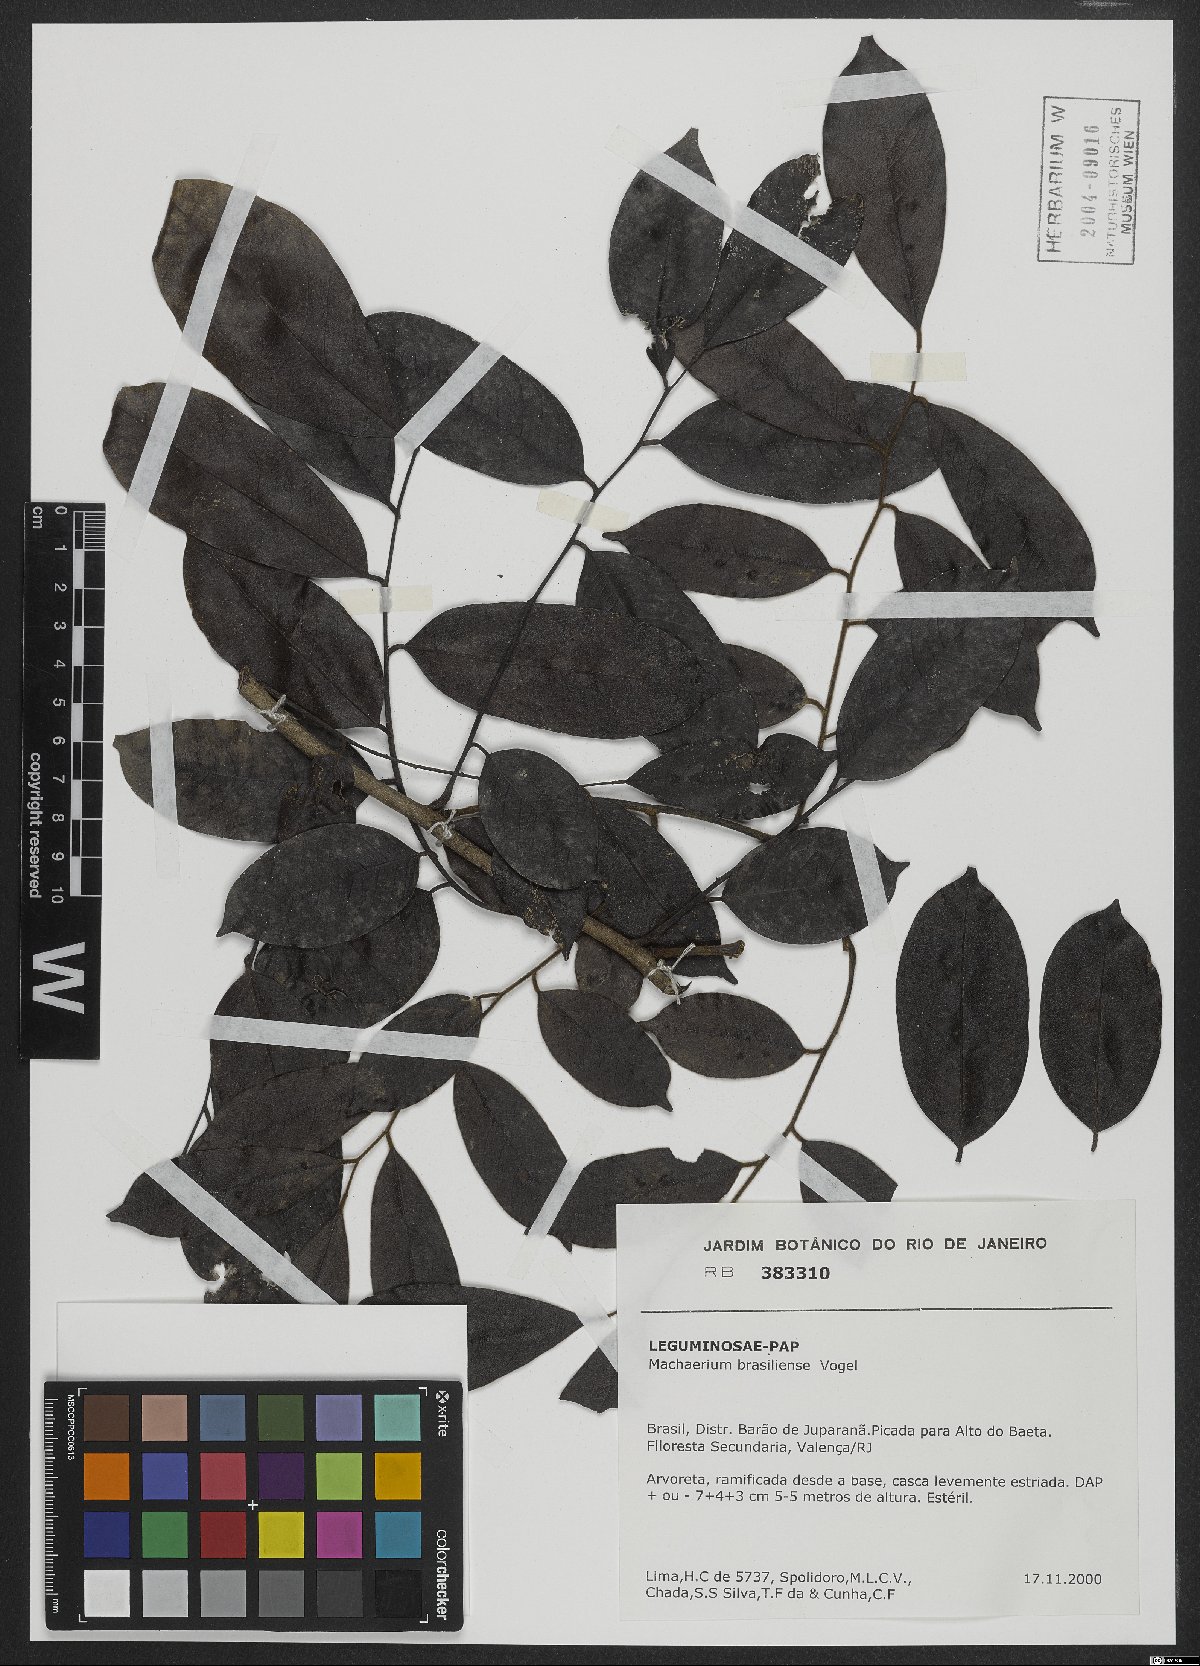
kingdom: Plantae
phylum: Tracheophyta
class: Magnoliopsida
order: Fabales
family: Fabaceae
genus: Machaerium
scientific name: Machaerium brasiliense
